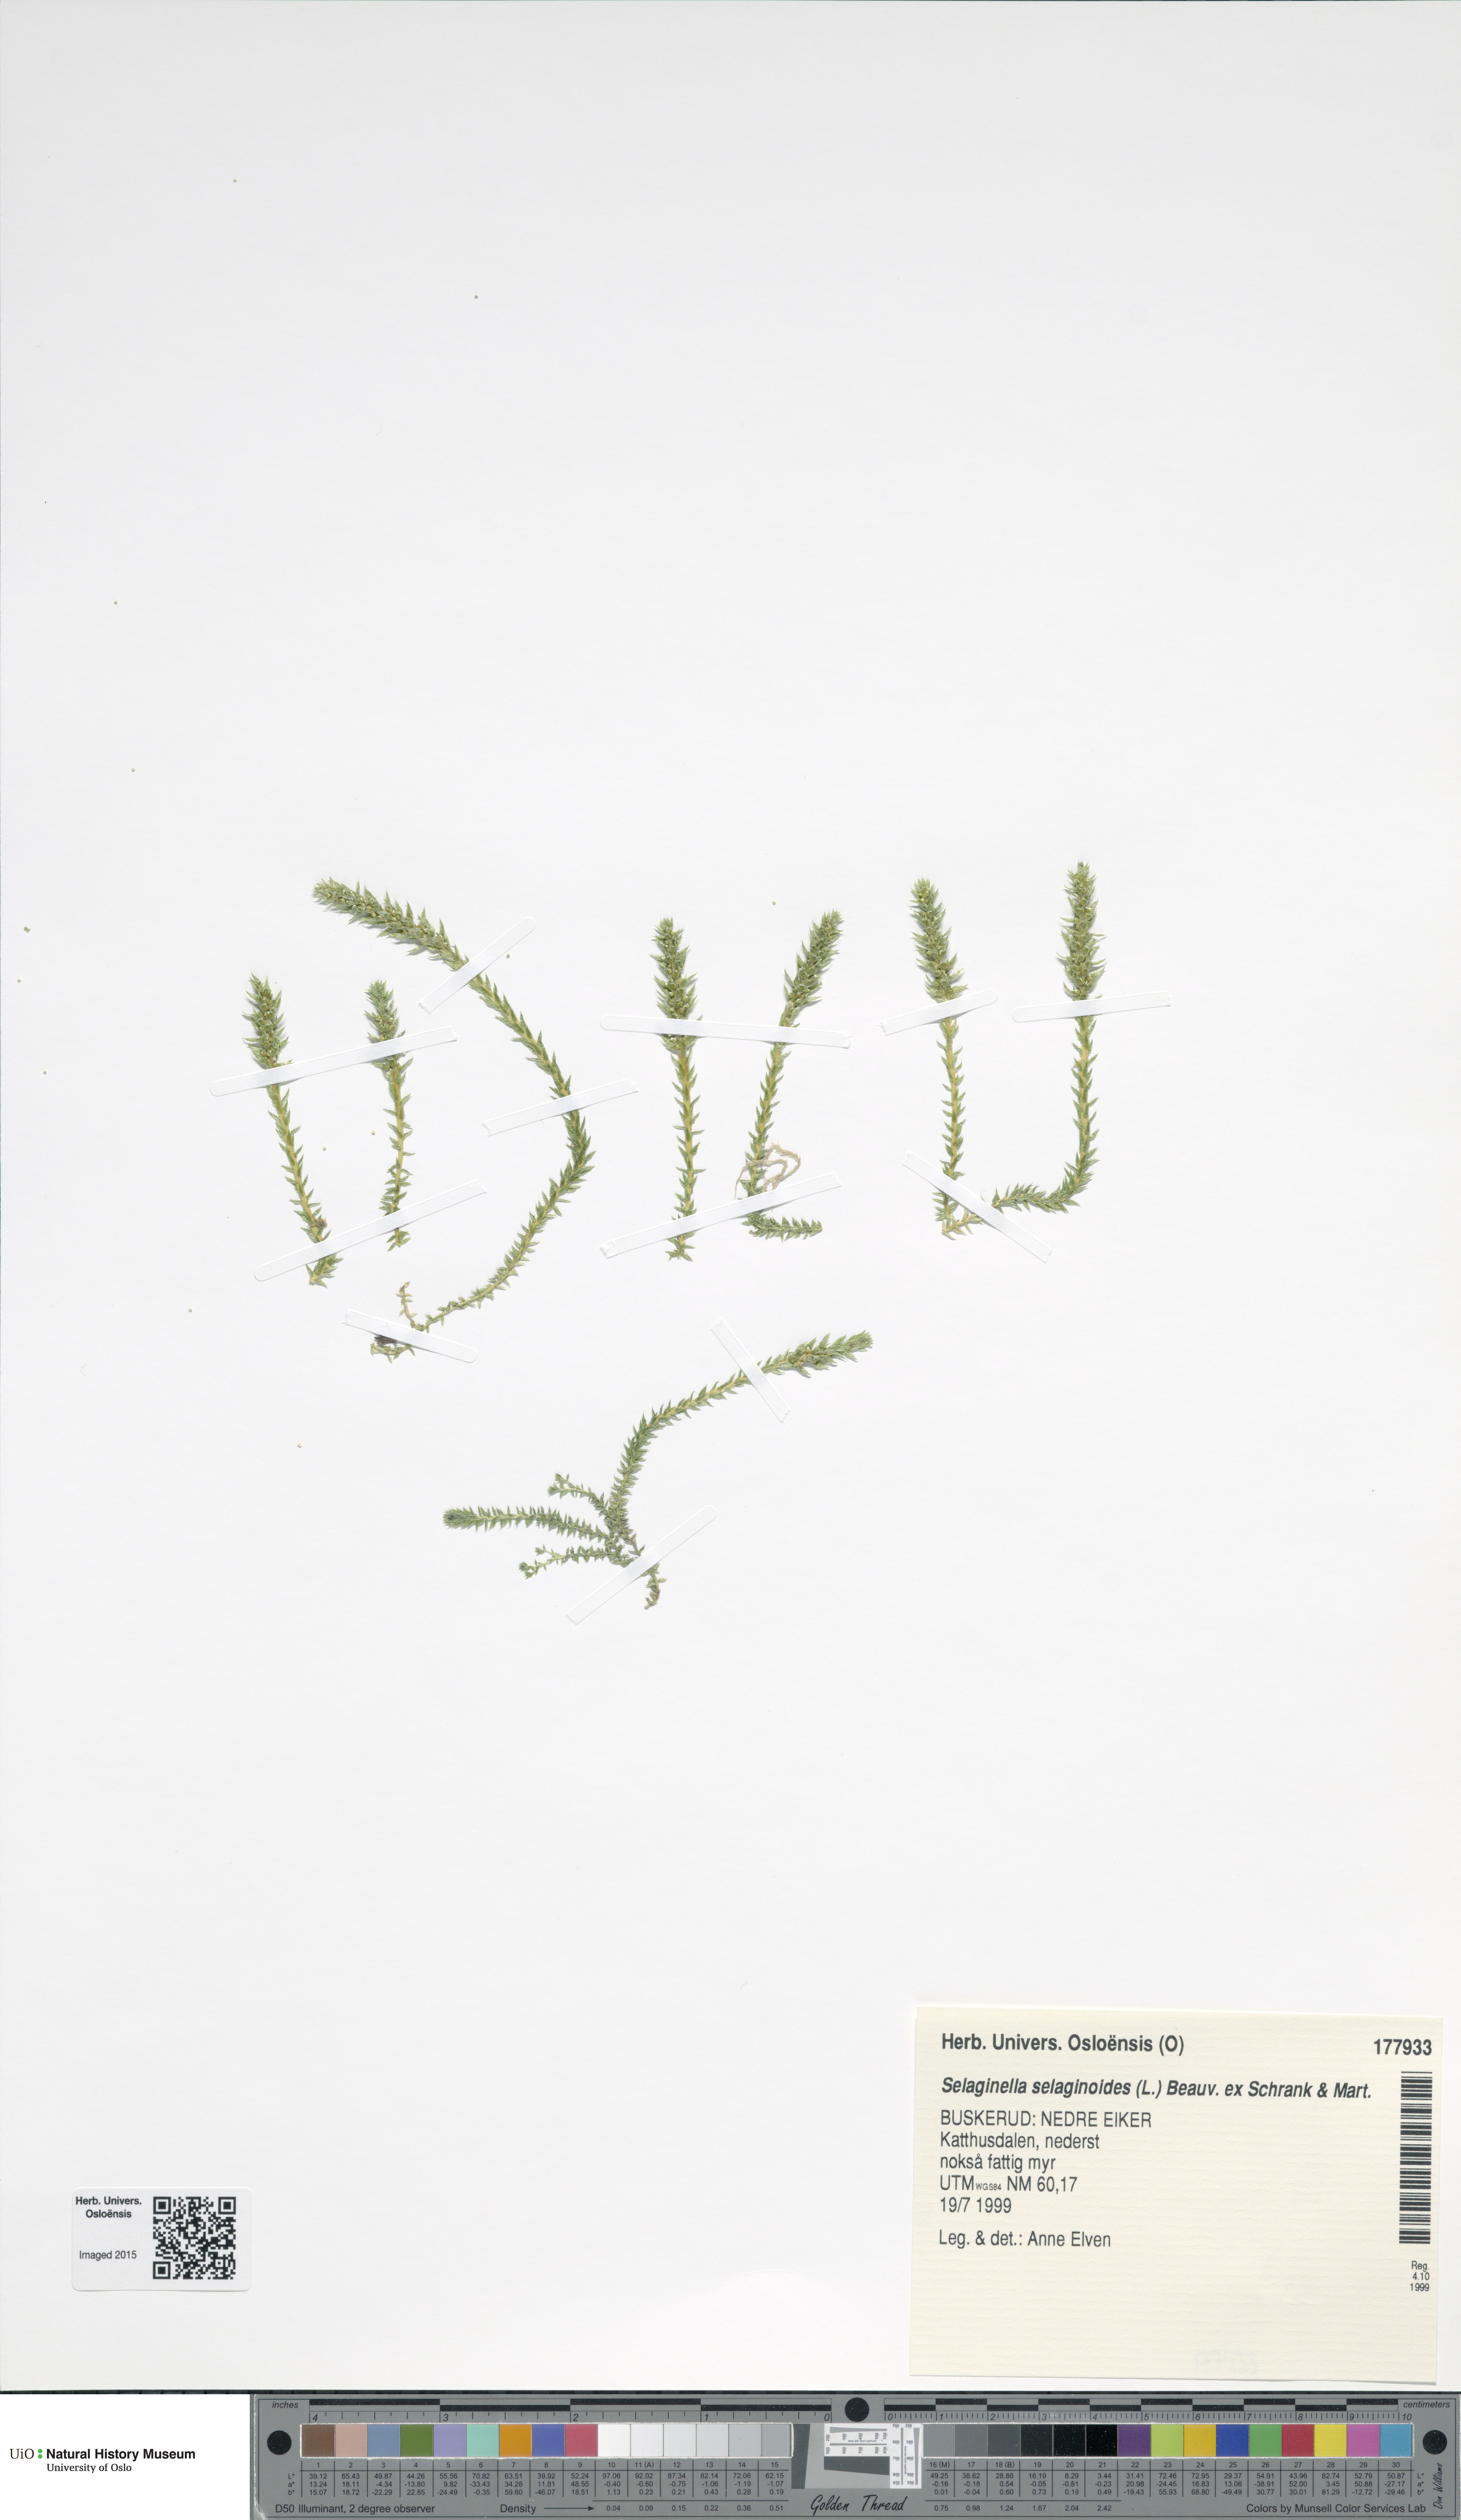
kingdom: Plantae
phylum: Tracheophyta
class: Lycopodiopsida
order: Selaginellales
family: Selaginellaceae
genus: Selaginella
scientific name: Selaginella selaginoides
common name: Prickly mountain-moss
